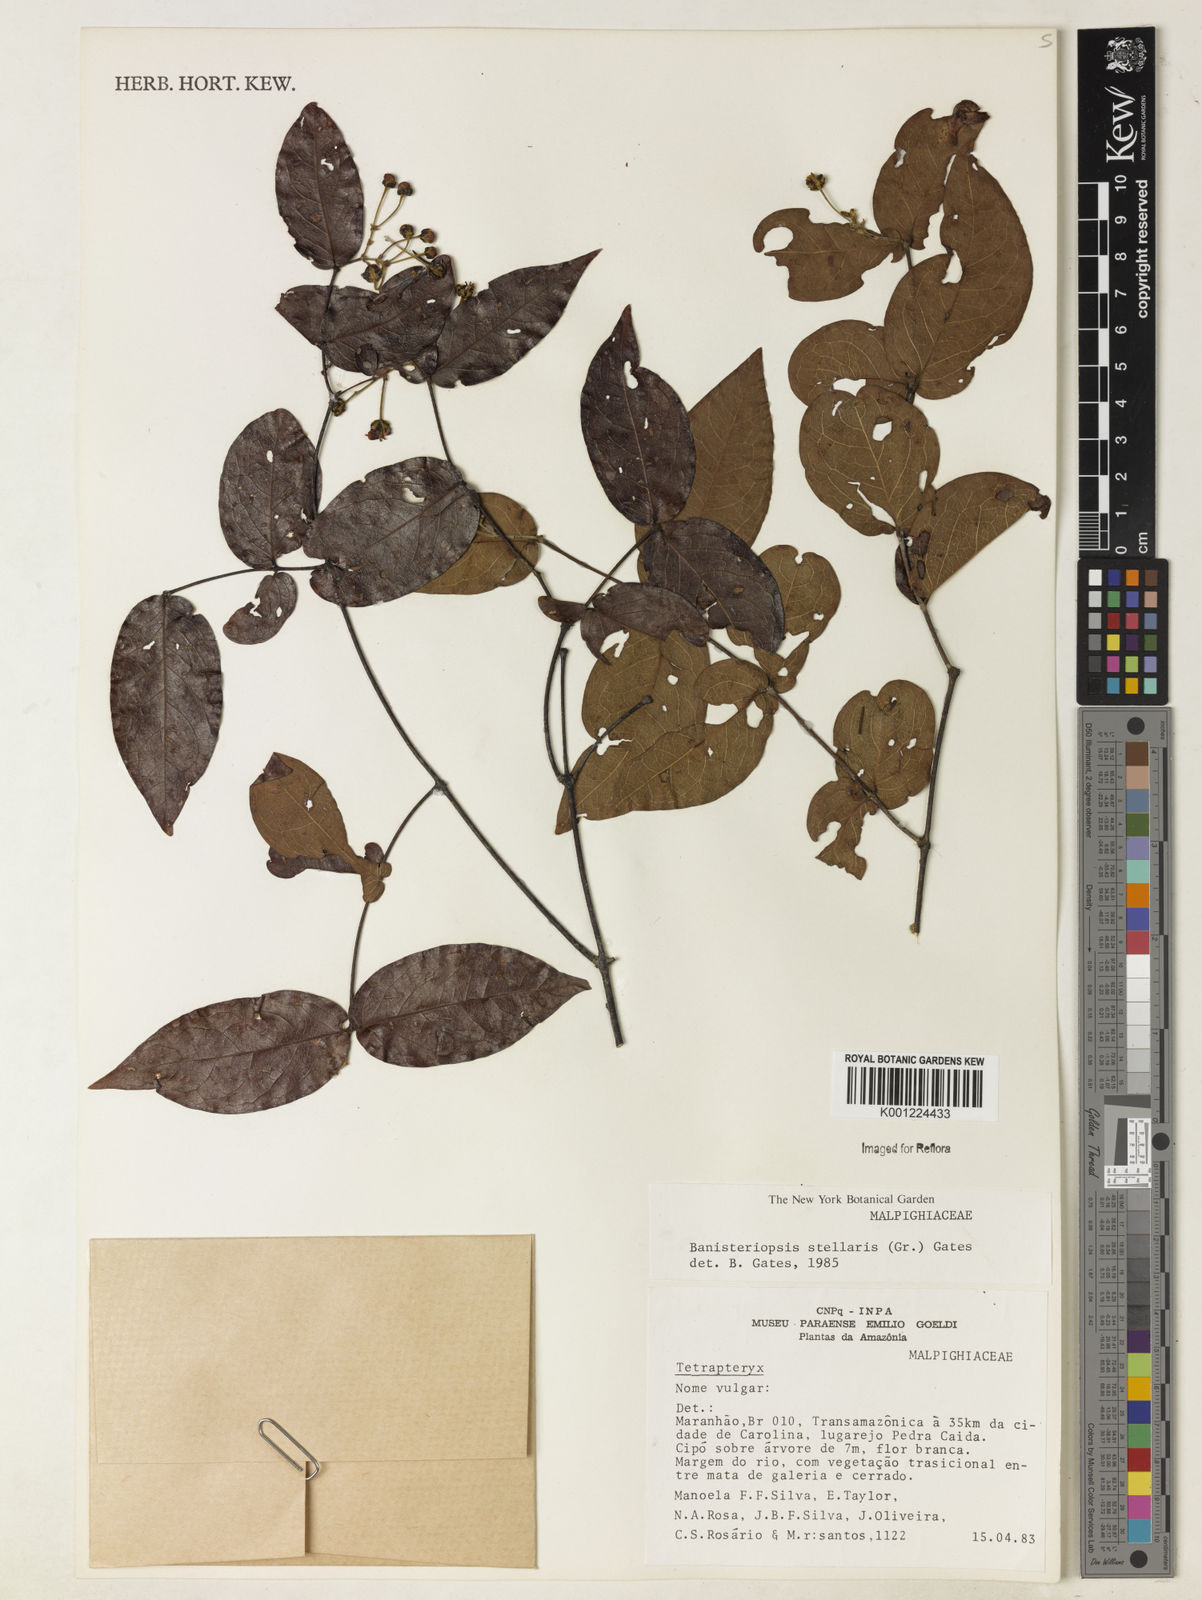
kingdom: Plantae
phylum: Tracheophyta
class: Magnoliopsida
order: Malpighiales
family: Malpighiaceae
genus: Banisteriopsis
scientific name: Banisteriopsis stellaris
